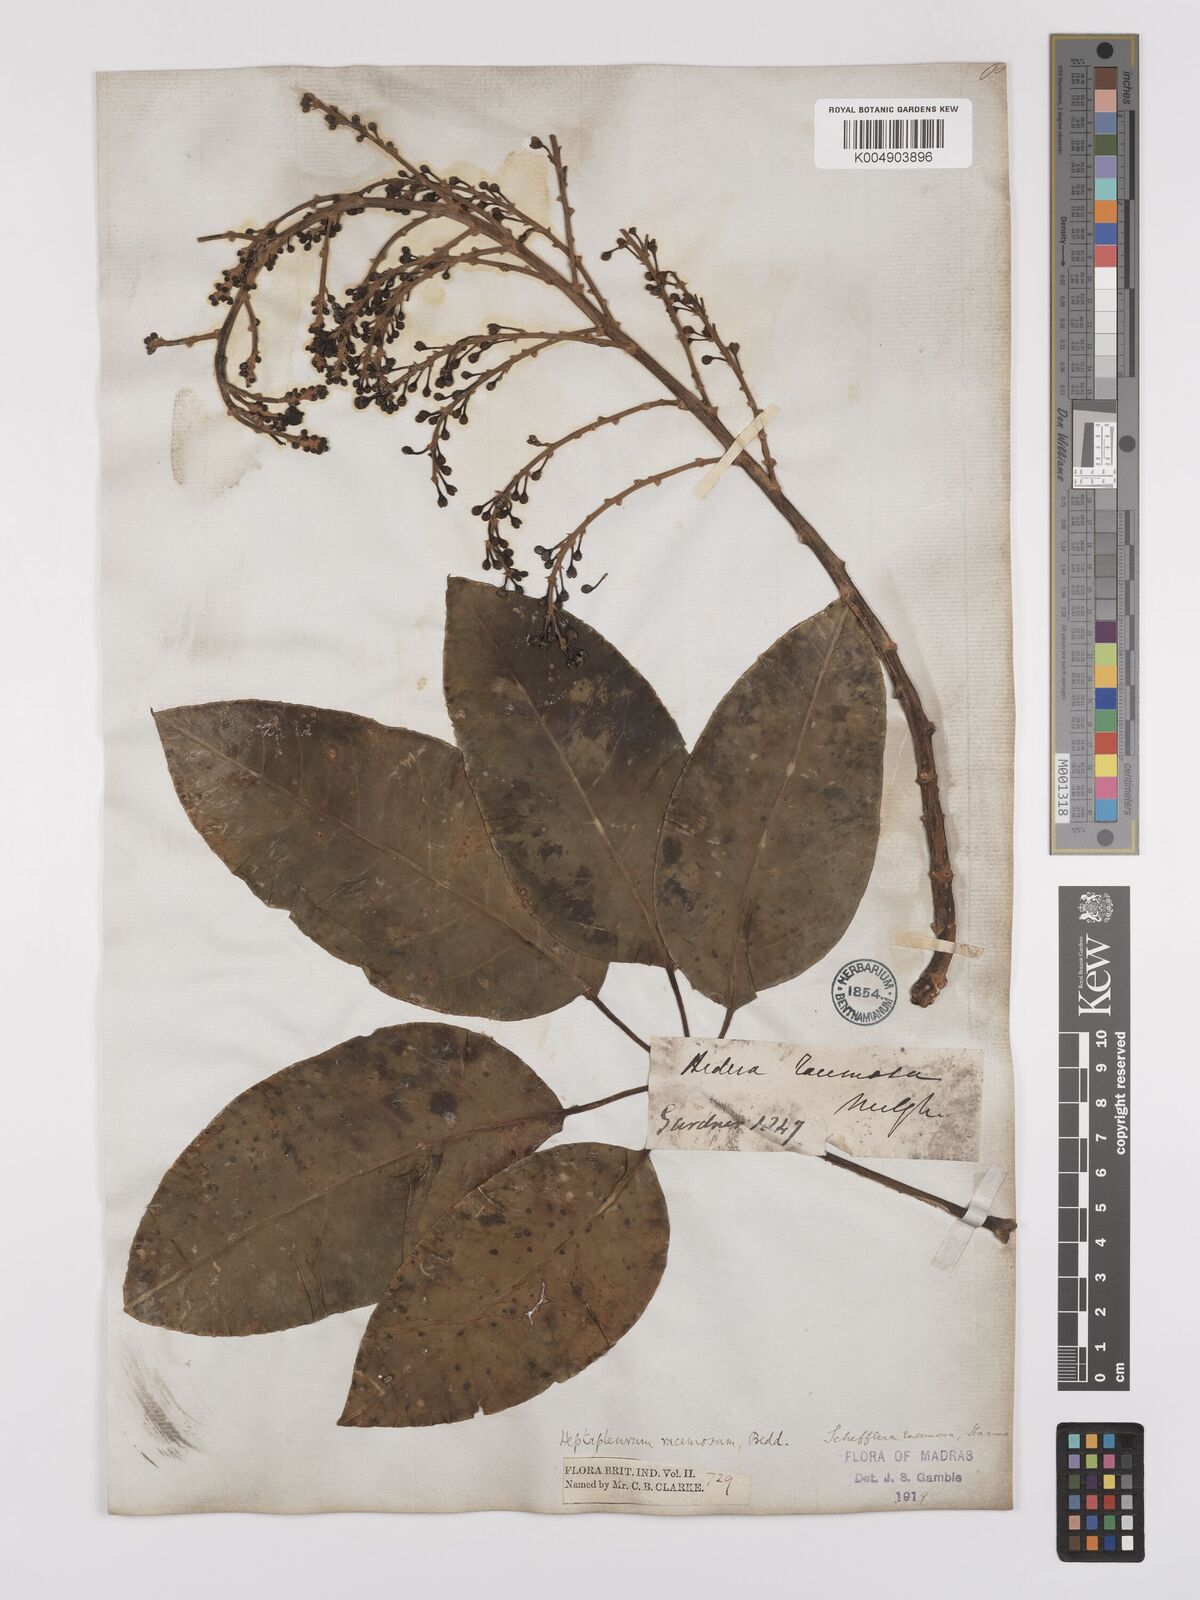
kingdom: Plantae
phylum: Tracheophyta
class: Magnoliopsida
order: Apiales
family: Araliaceae
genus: Heptapleurum
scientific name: Heptapleurum racemosum
